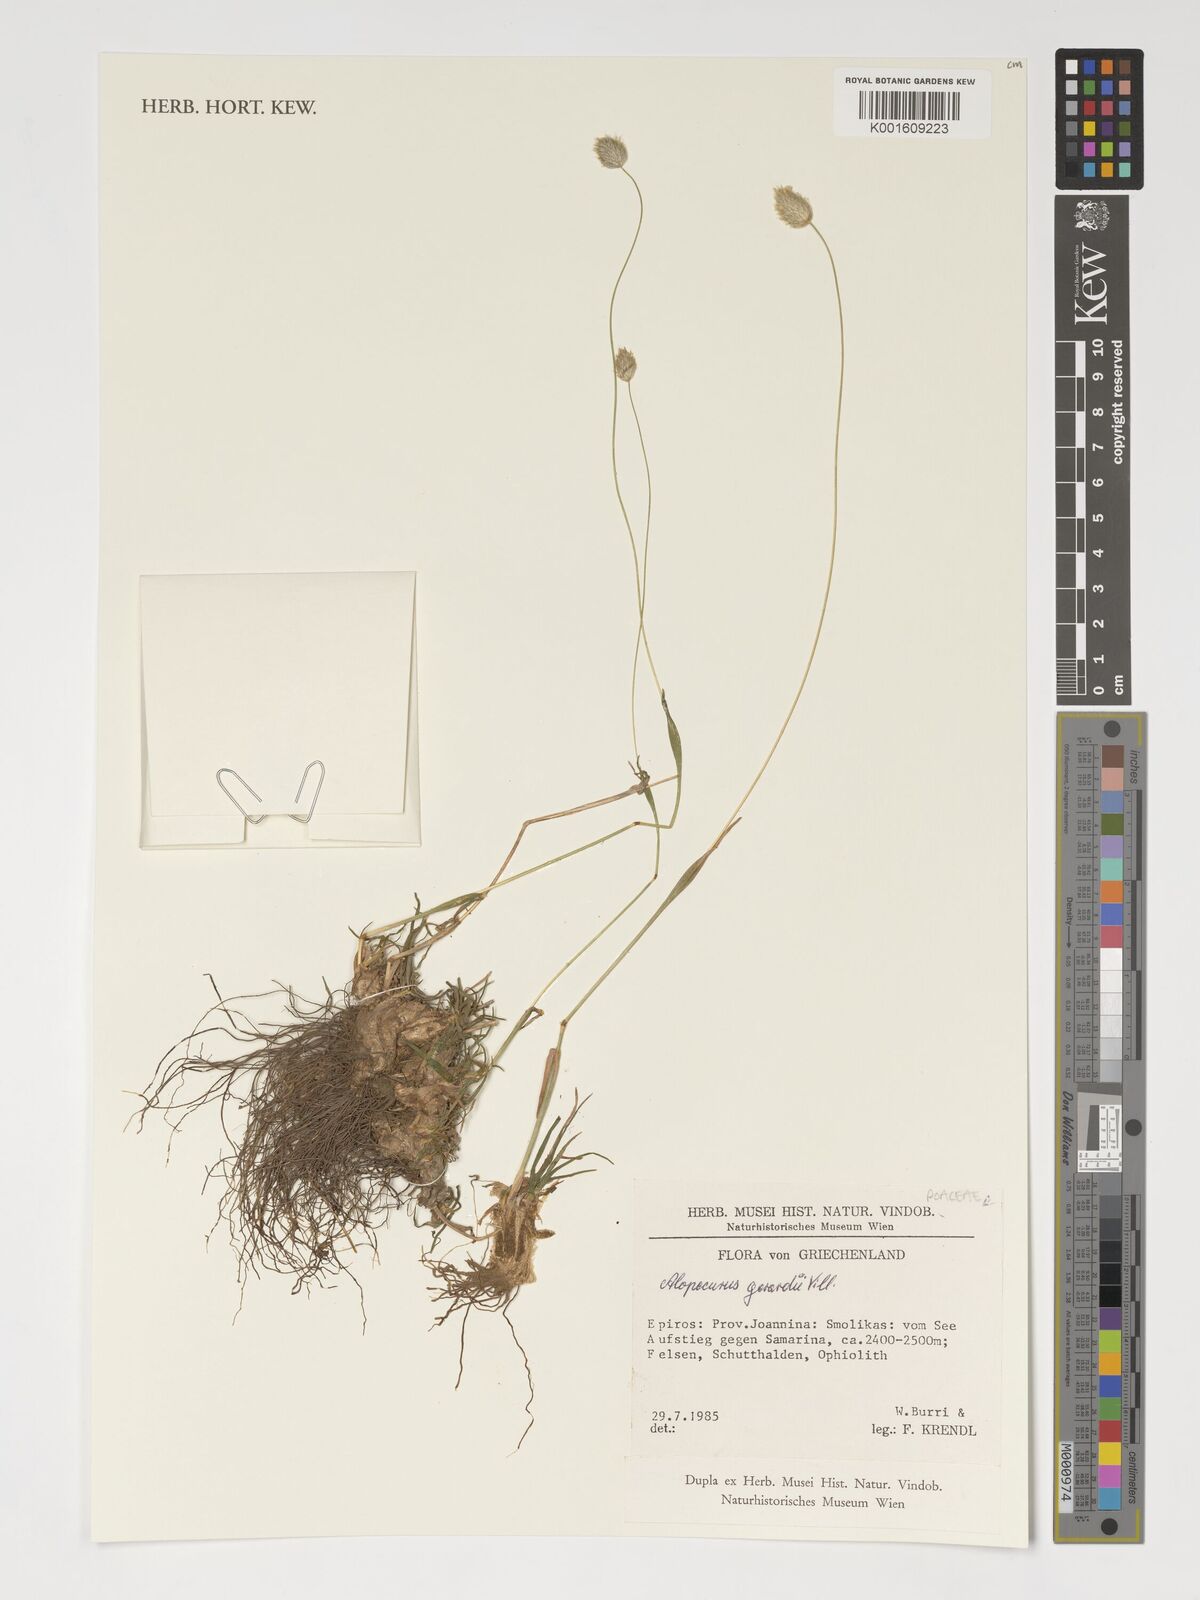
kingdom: Plantae
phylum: Tracheophyta
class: Liliopsida
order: Poales
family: Poaceae
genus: Alopecurus
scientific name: Alopecurus gerardii
